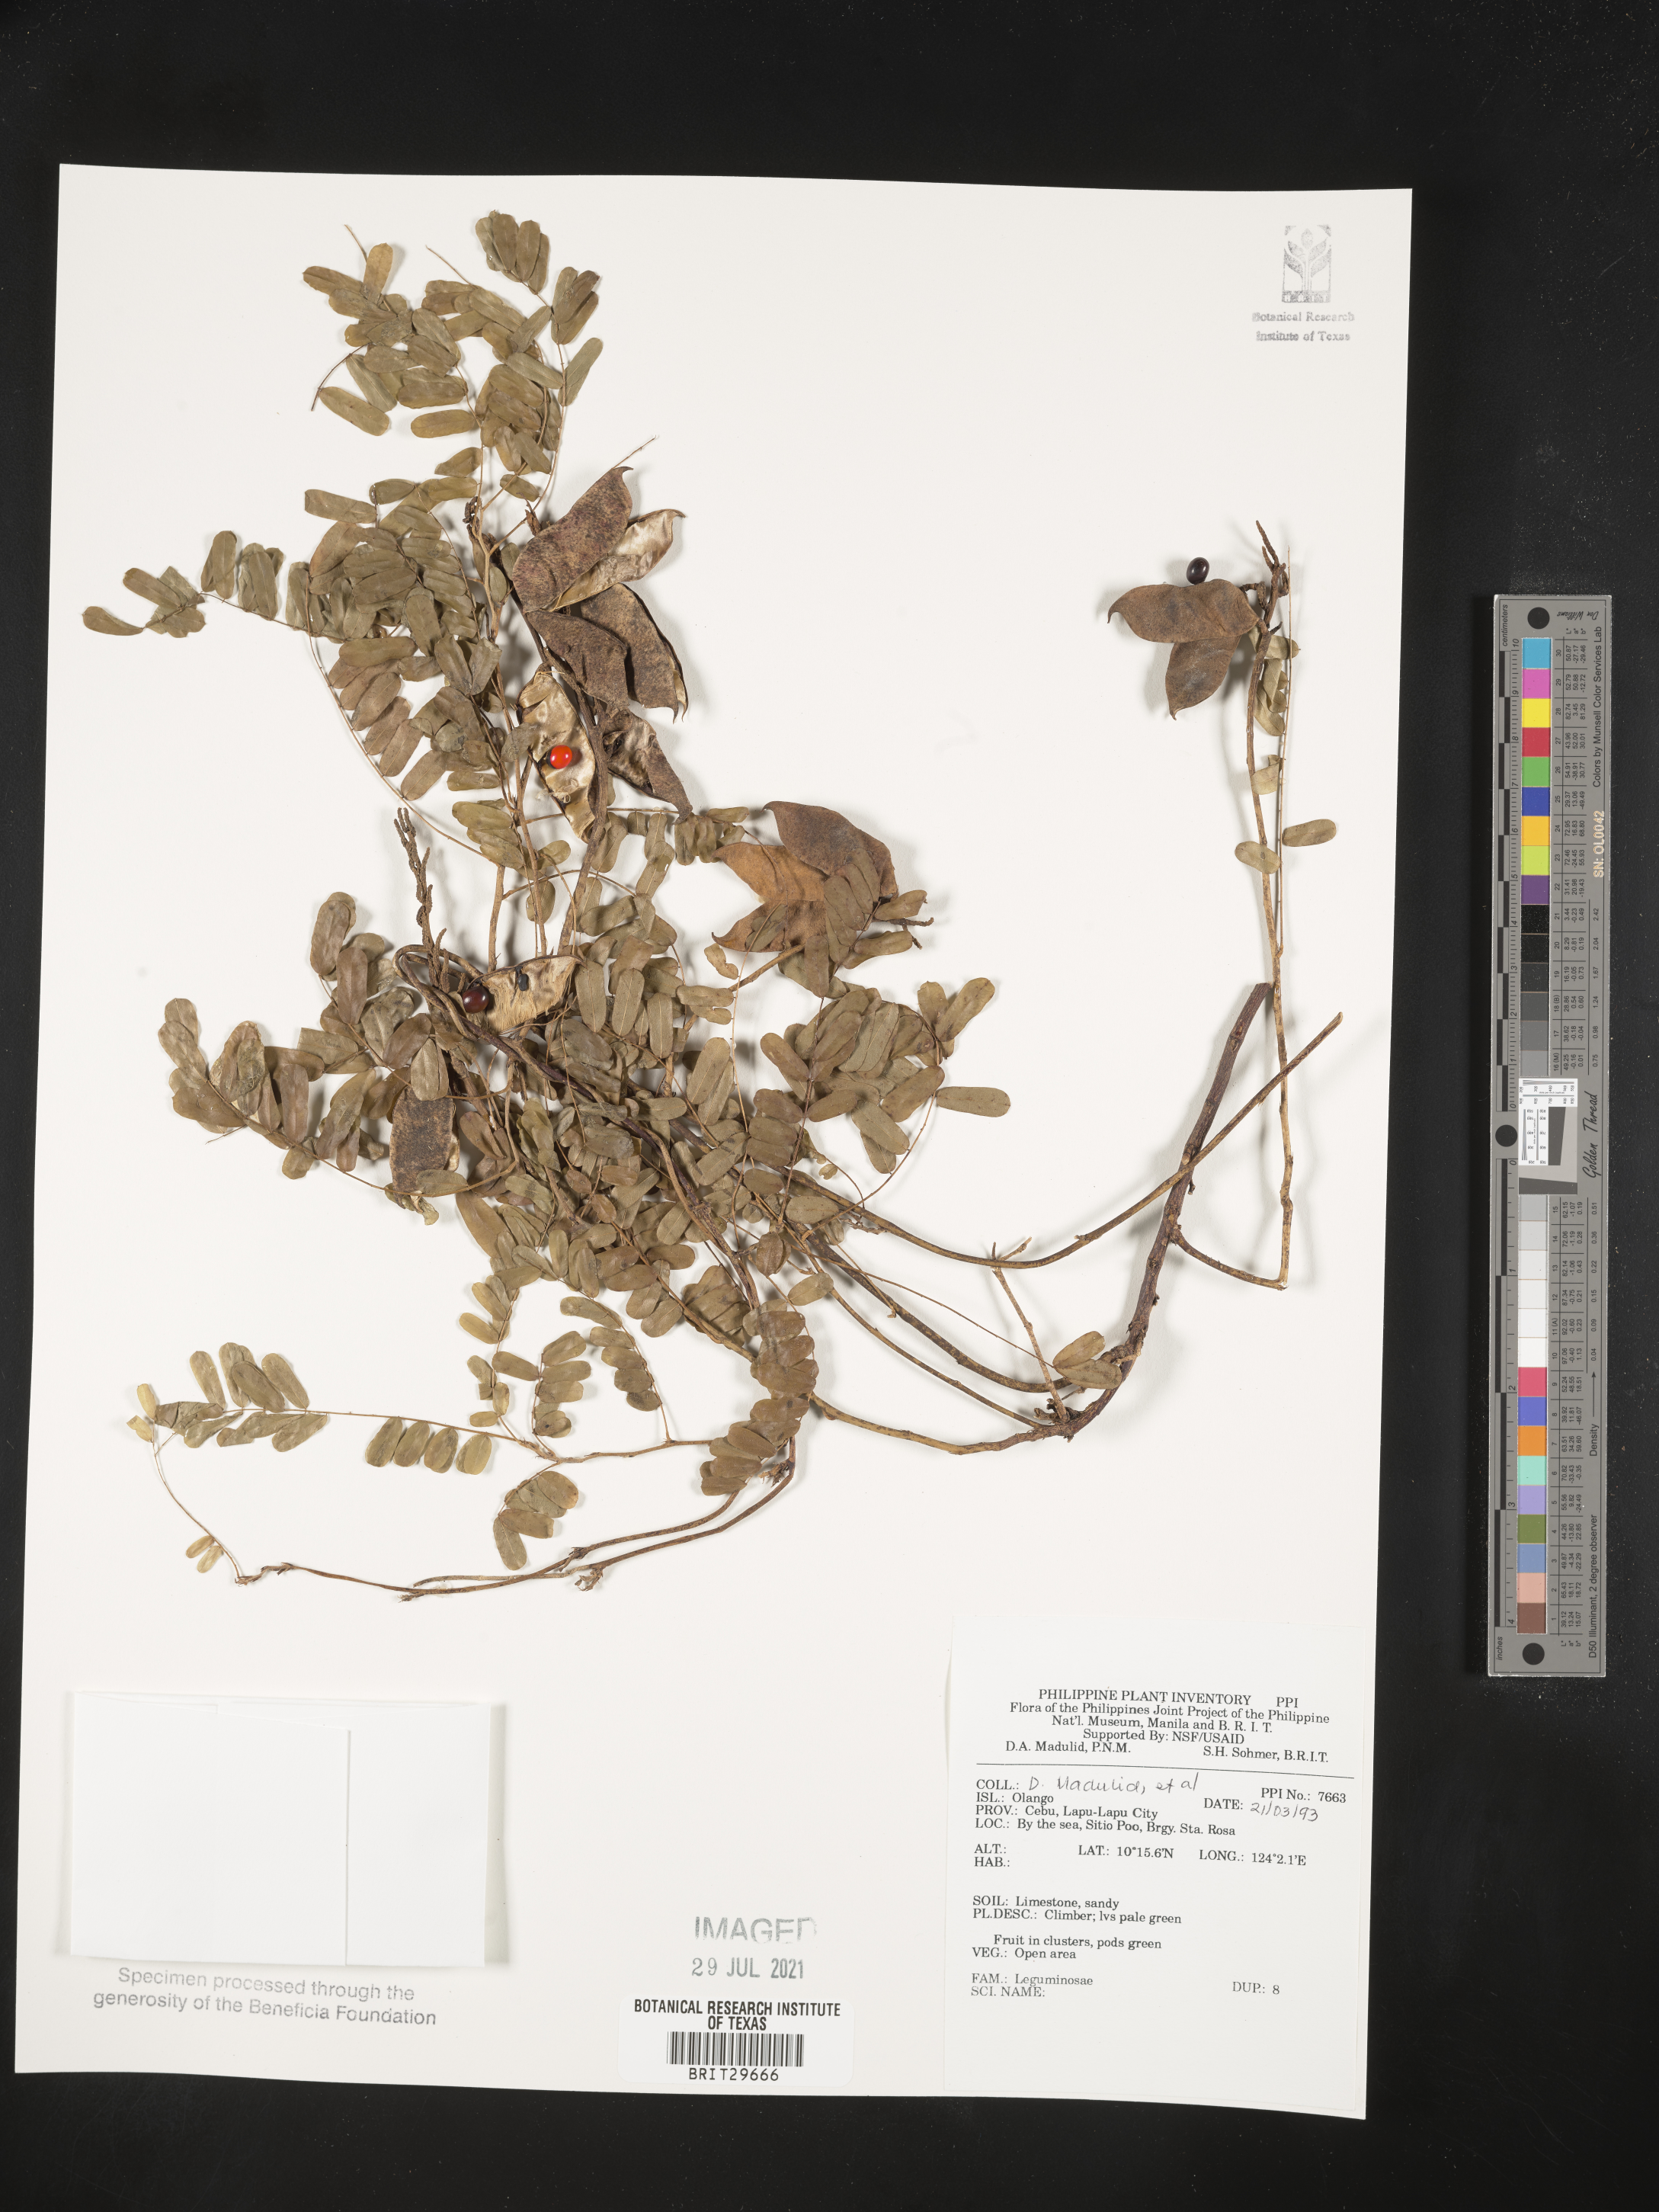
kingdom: Plantae
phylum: Tracheophyta
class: Magnoliopsida
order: Fabales
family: Fabaceae
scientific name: Fabaceae
